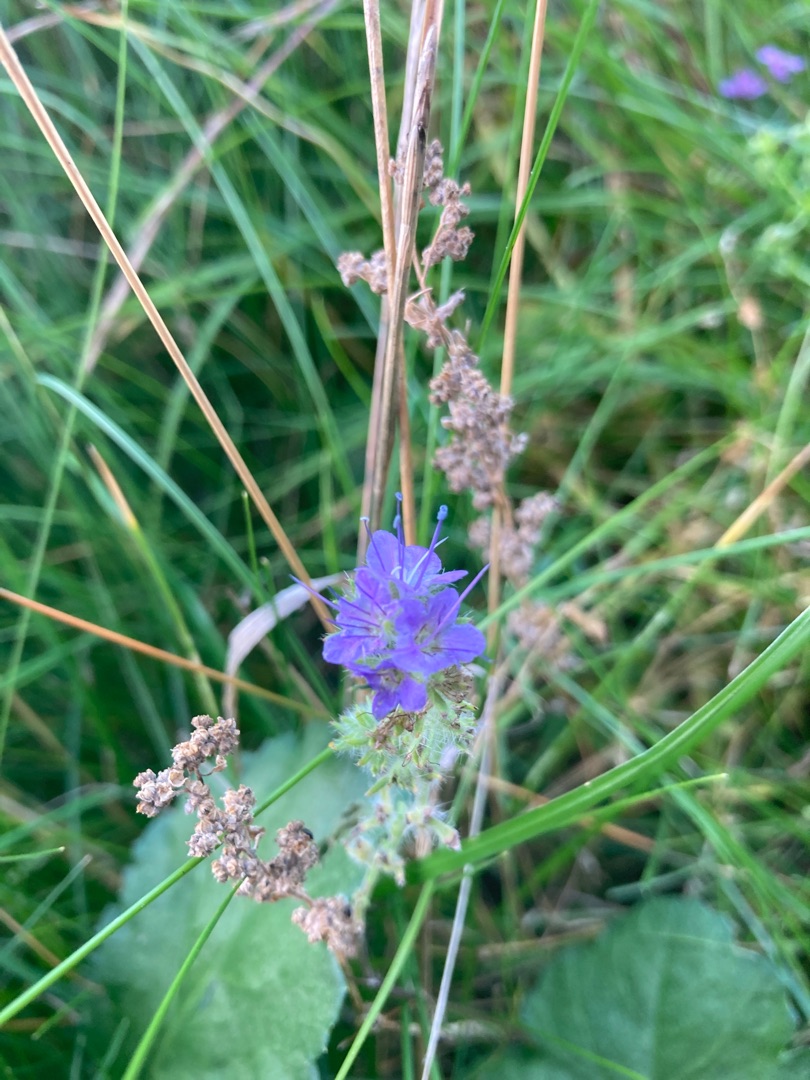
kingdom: Plantae
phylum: Tracheophyta
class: Magnoliopsida
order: Boraginales
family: Boraginaceae
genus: Echium
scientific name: Echium vulgare
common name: Slangehoved
